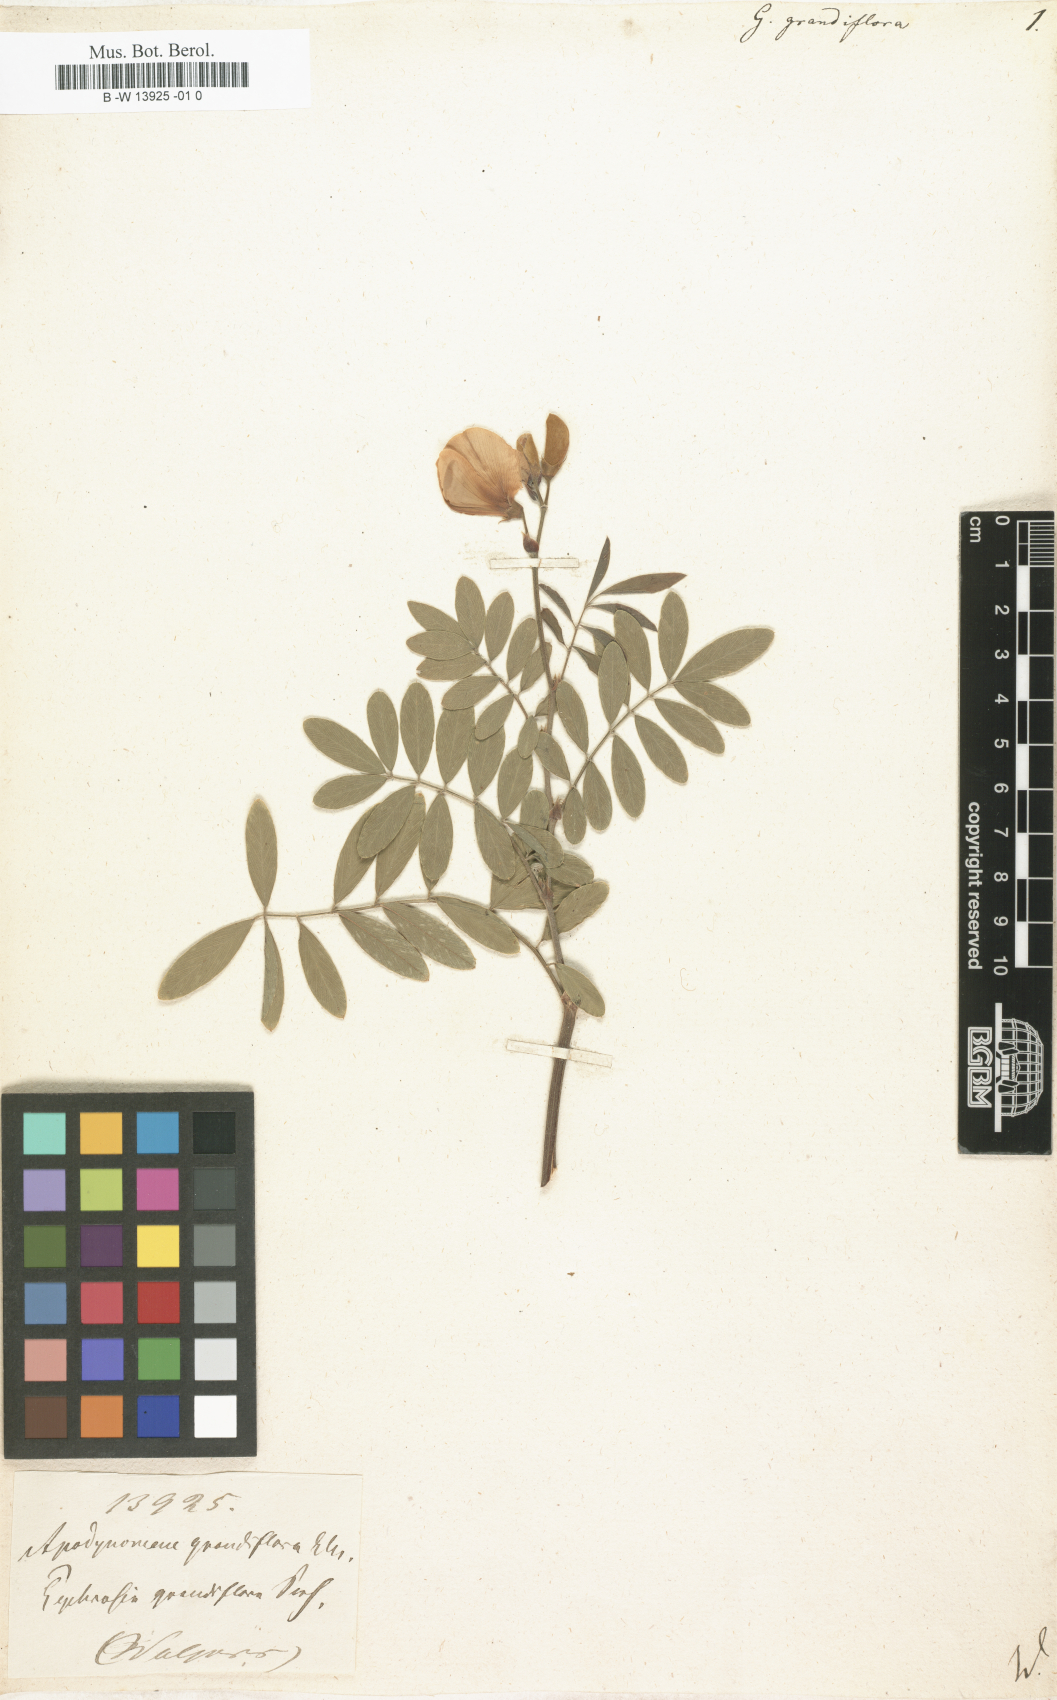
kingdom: Plantae
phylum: Tracheophyta
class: Magnoliopsida
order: Fabales
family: Fabaceae
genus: Tephrosia
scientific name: Tephrosia grandiflora
